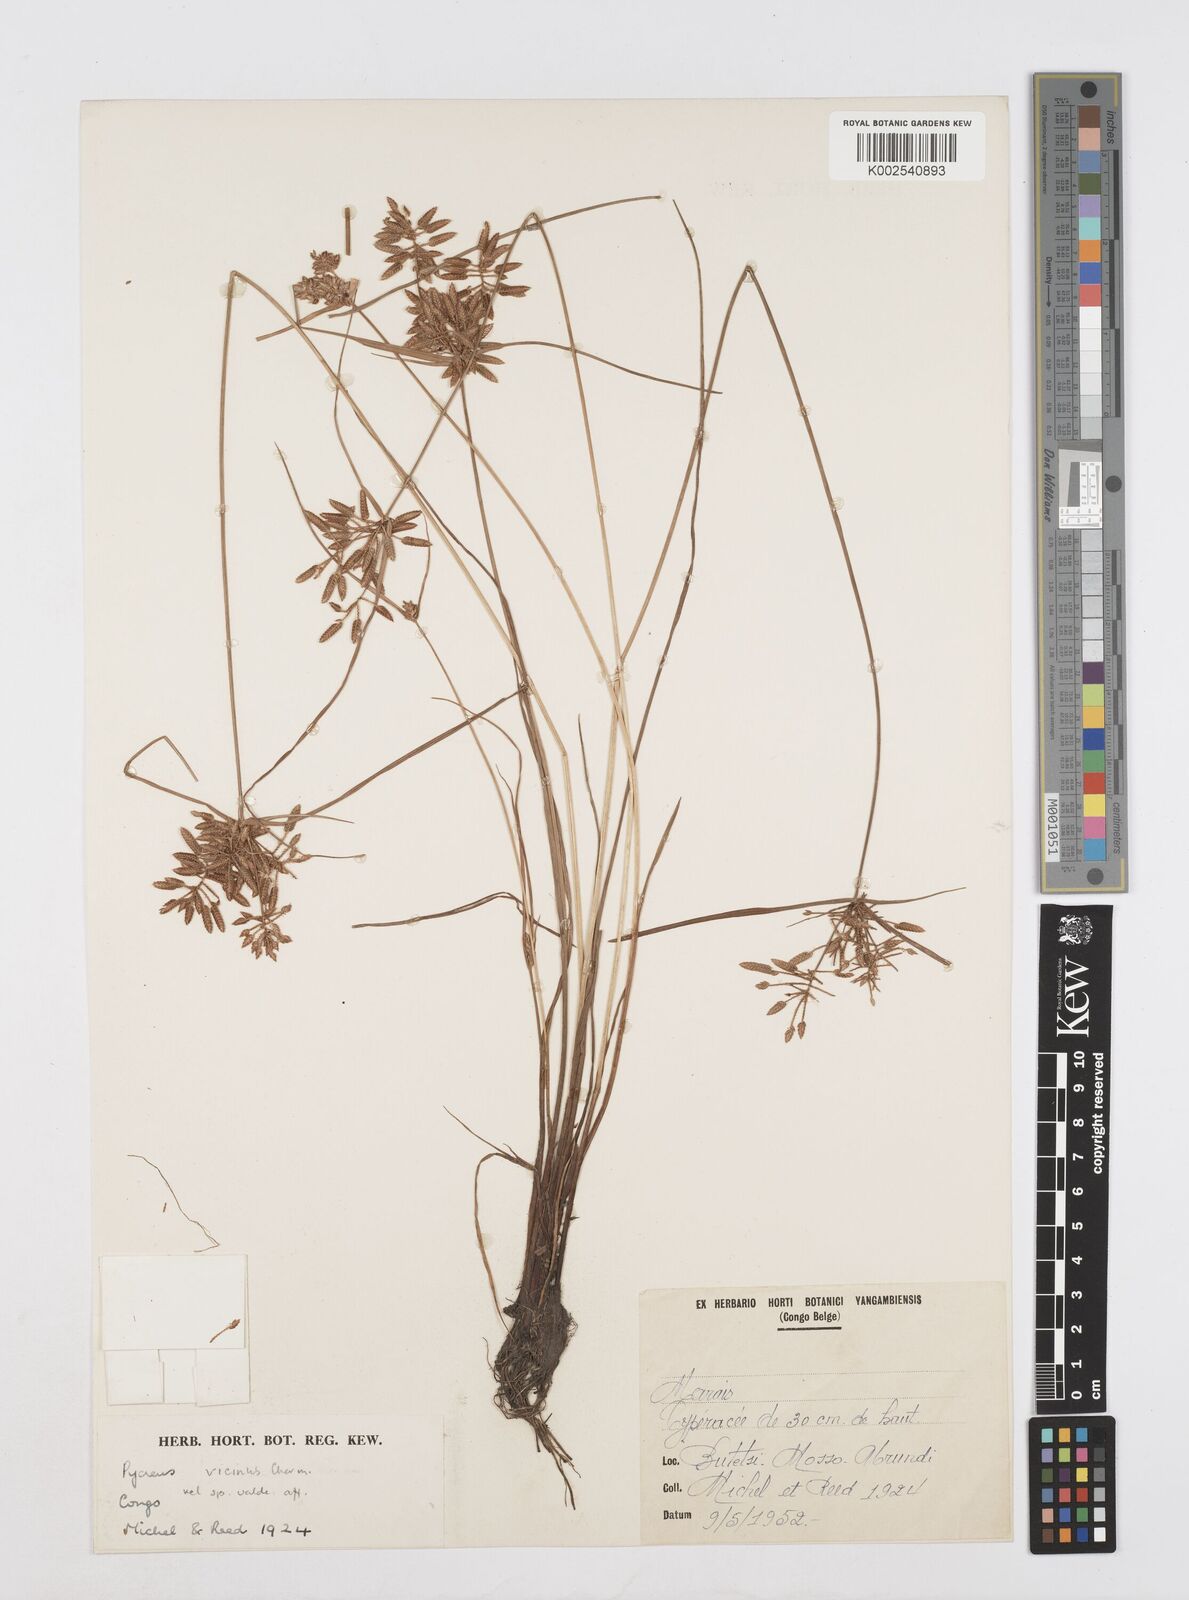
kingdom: Plantae
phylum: Tracheophyta
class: Liliopsida
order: Poales
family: Cyperaceae
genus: Cyperus
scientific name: Cyperus
